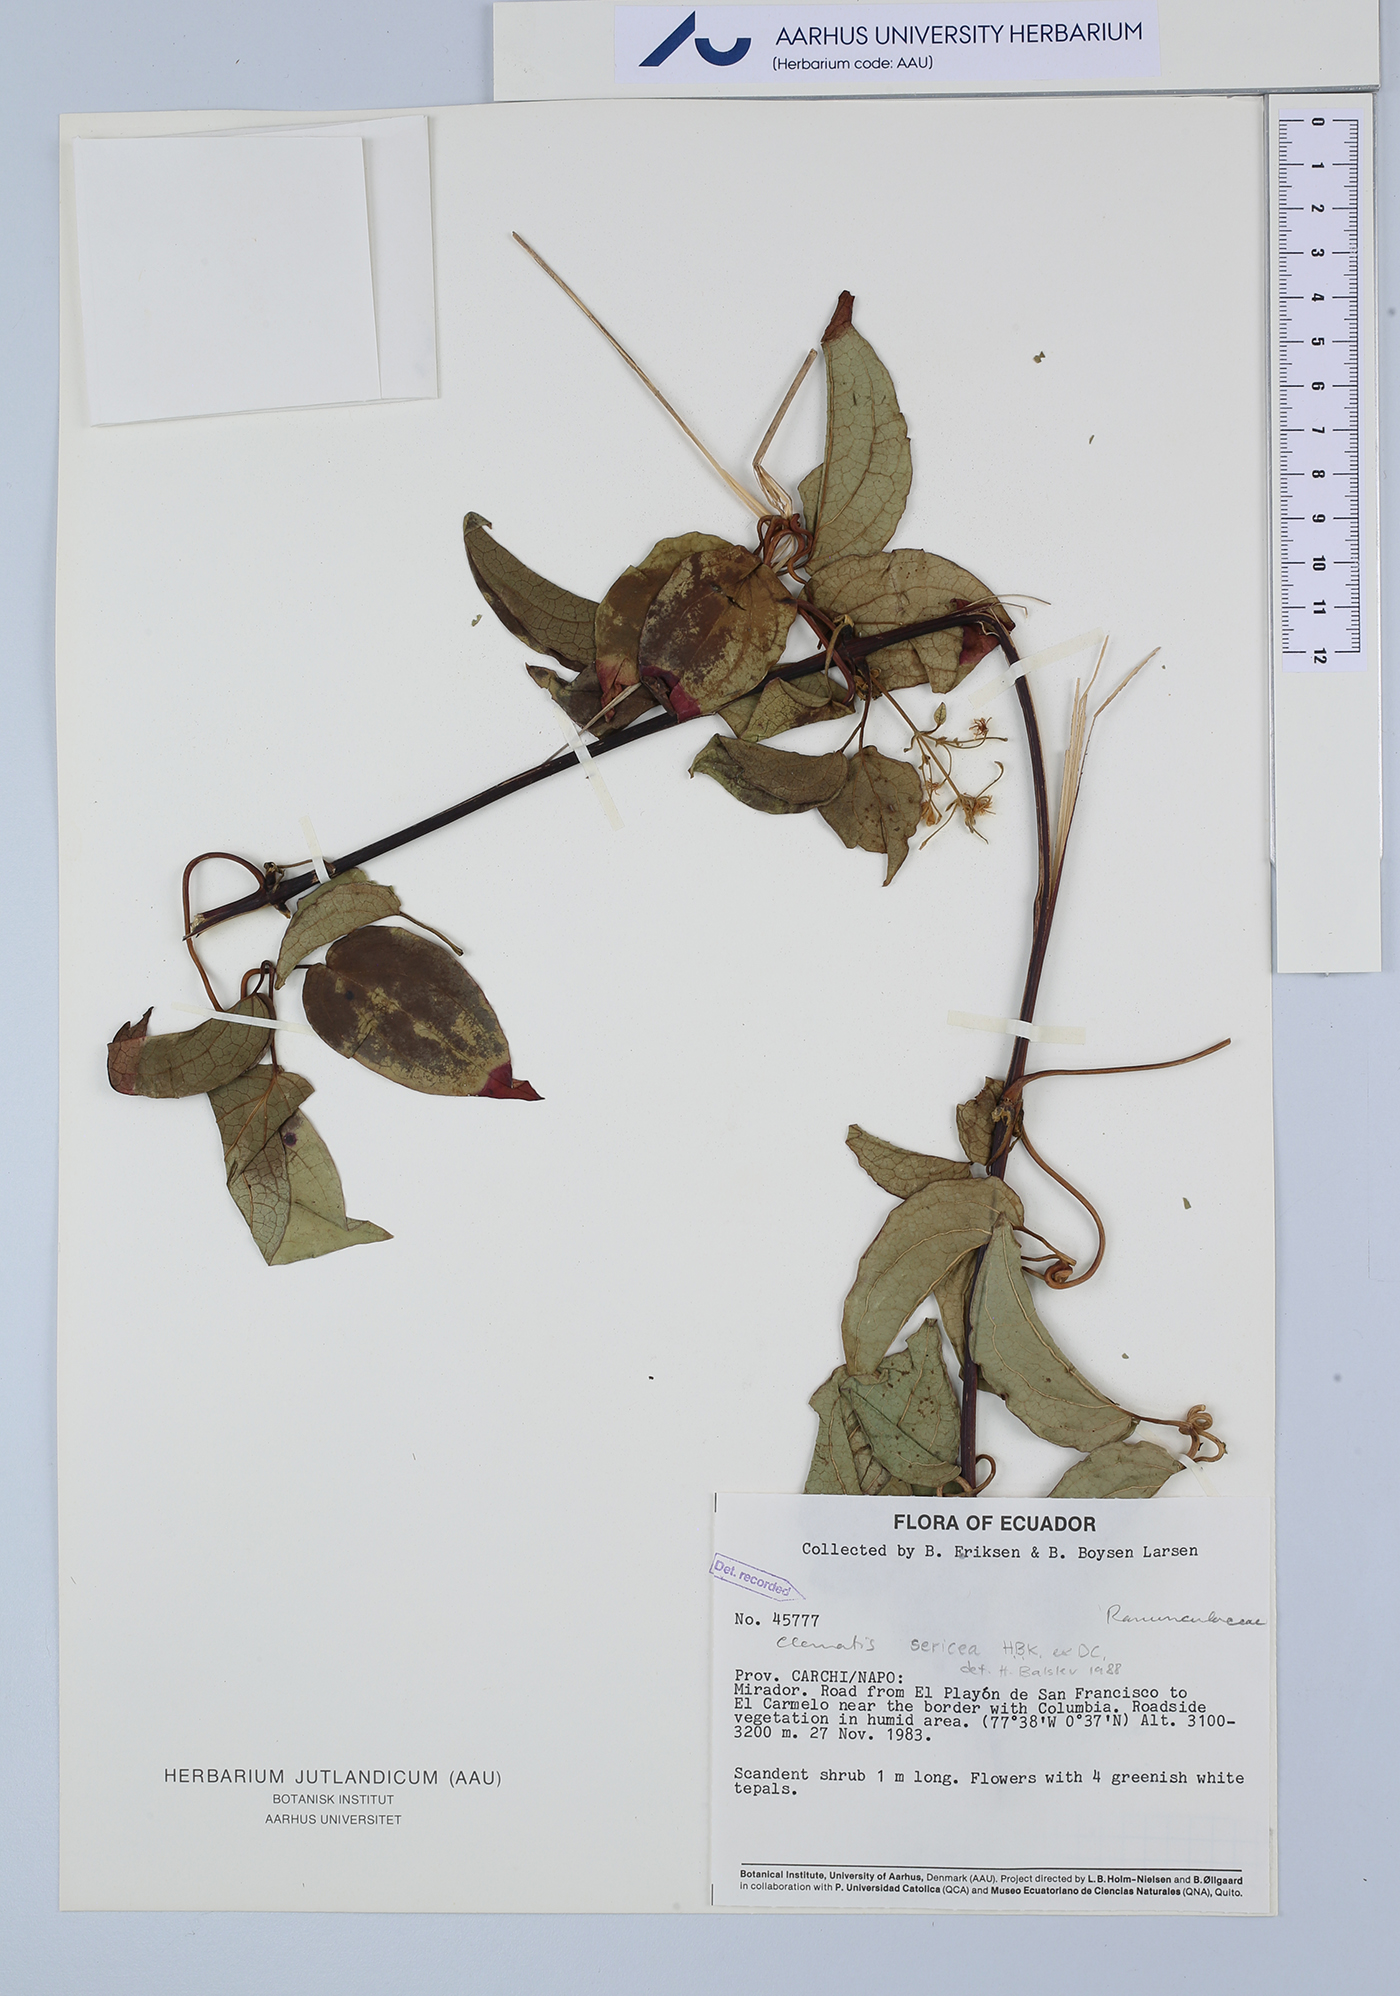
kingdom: Plantae
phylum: Tracheophyta
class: Magnoliopsida
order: Ranunculales
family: Ranunculaceae
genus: Clematis
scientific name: Clematis haenkeana
